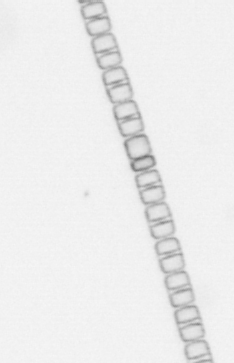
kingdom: Chromista
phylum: Ochrophyta
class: Bacillariophyceae
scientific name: Bacillariophyceae
